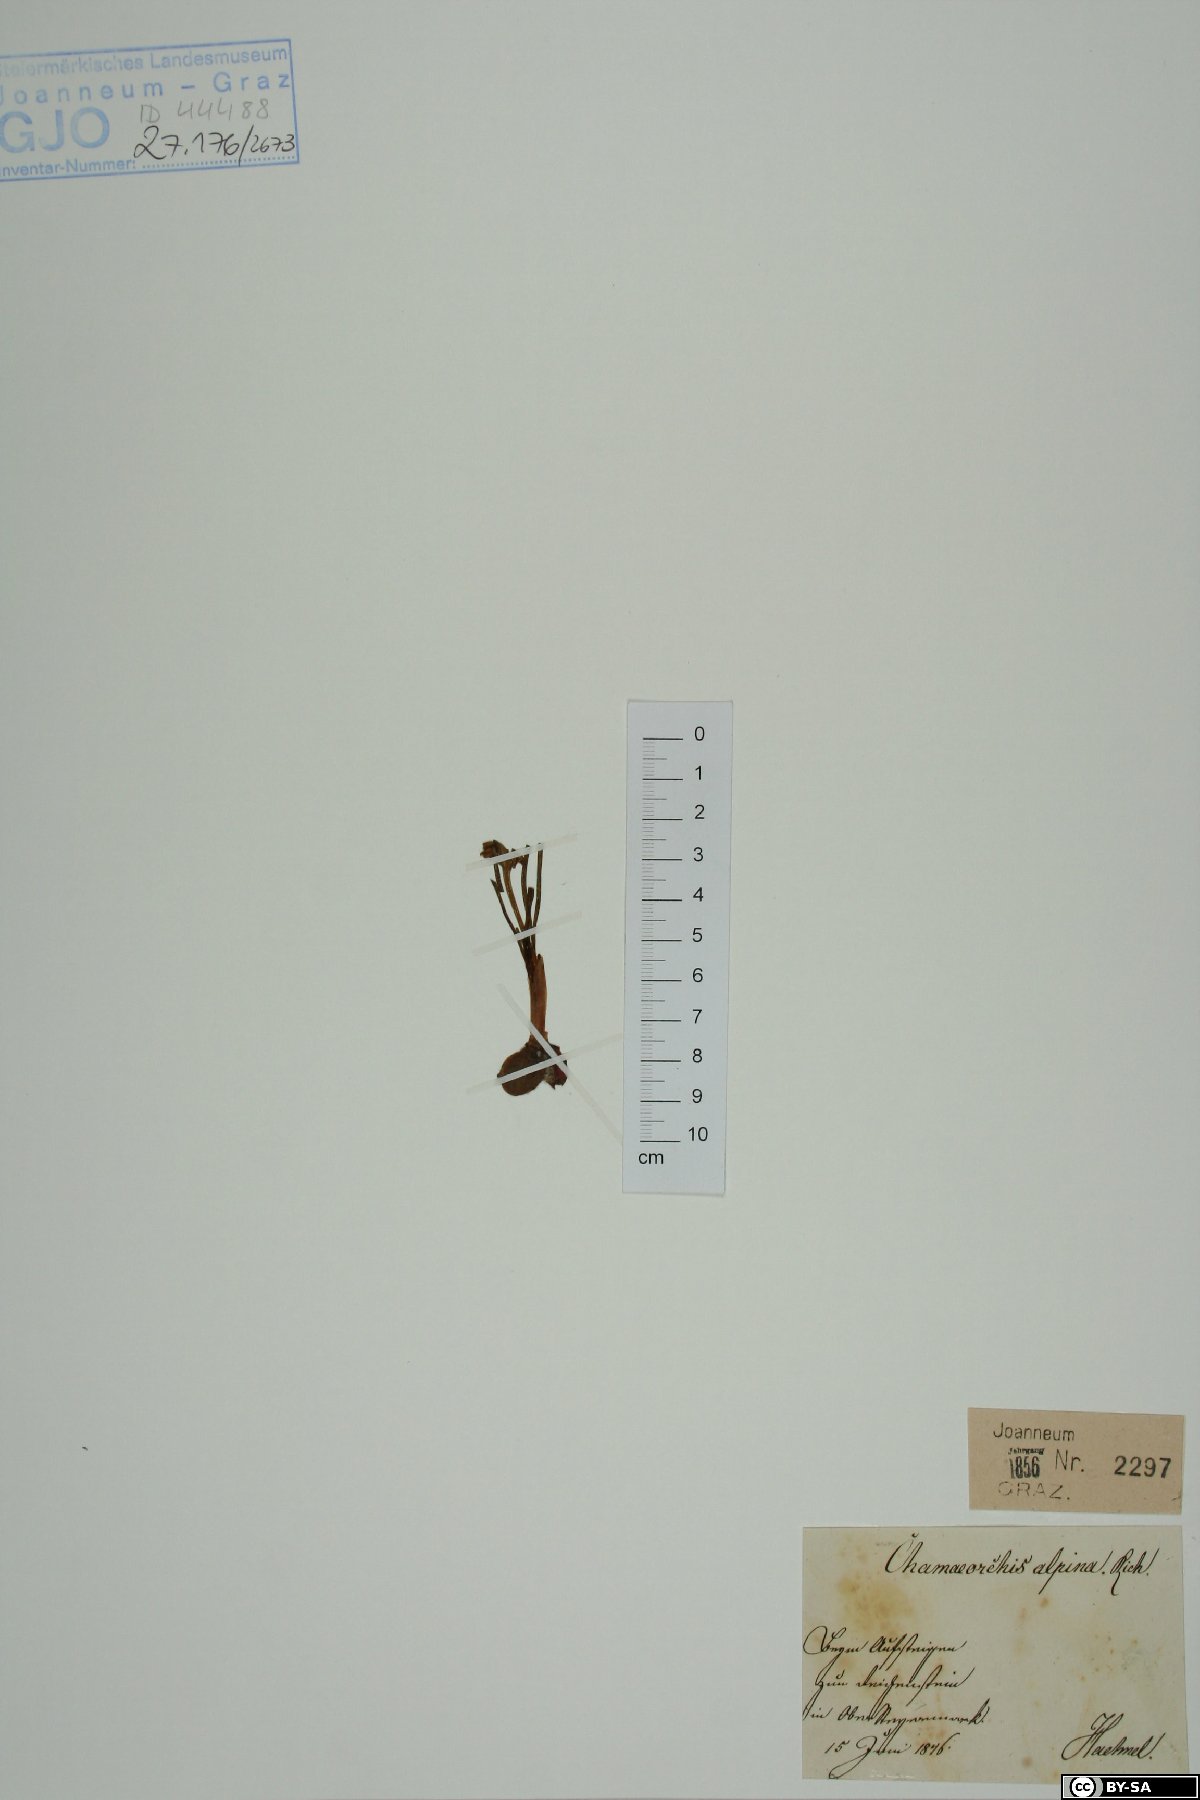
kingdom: Plantae
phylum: Tracheophyta
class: Liliopsida
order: Asparagales
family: Orchidaceae
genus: Chamorchis
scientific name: Chamorchis alpina
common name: Alpine chamorchis
